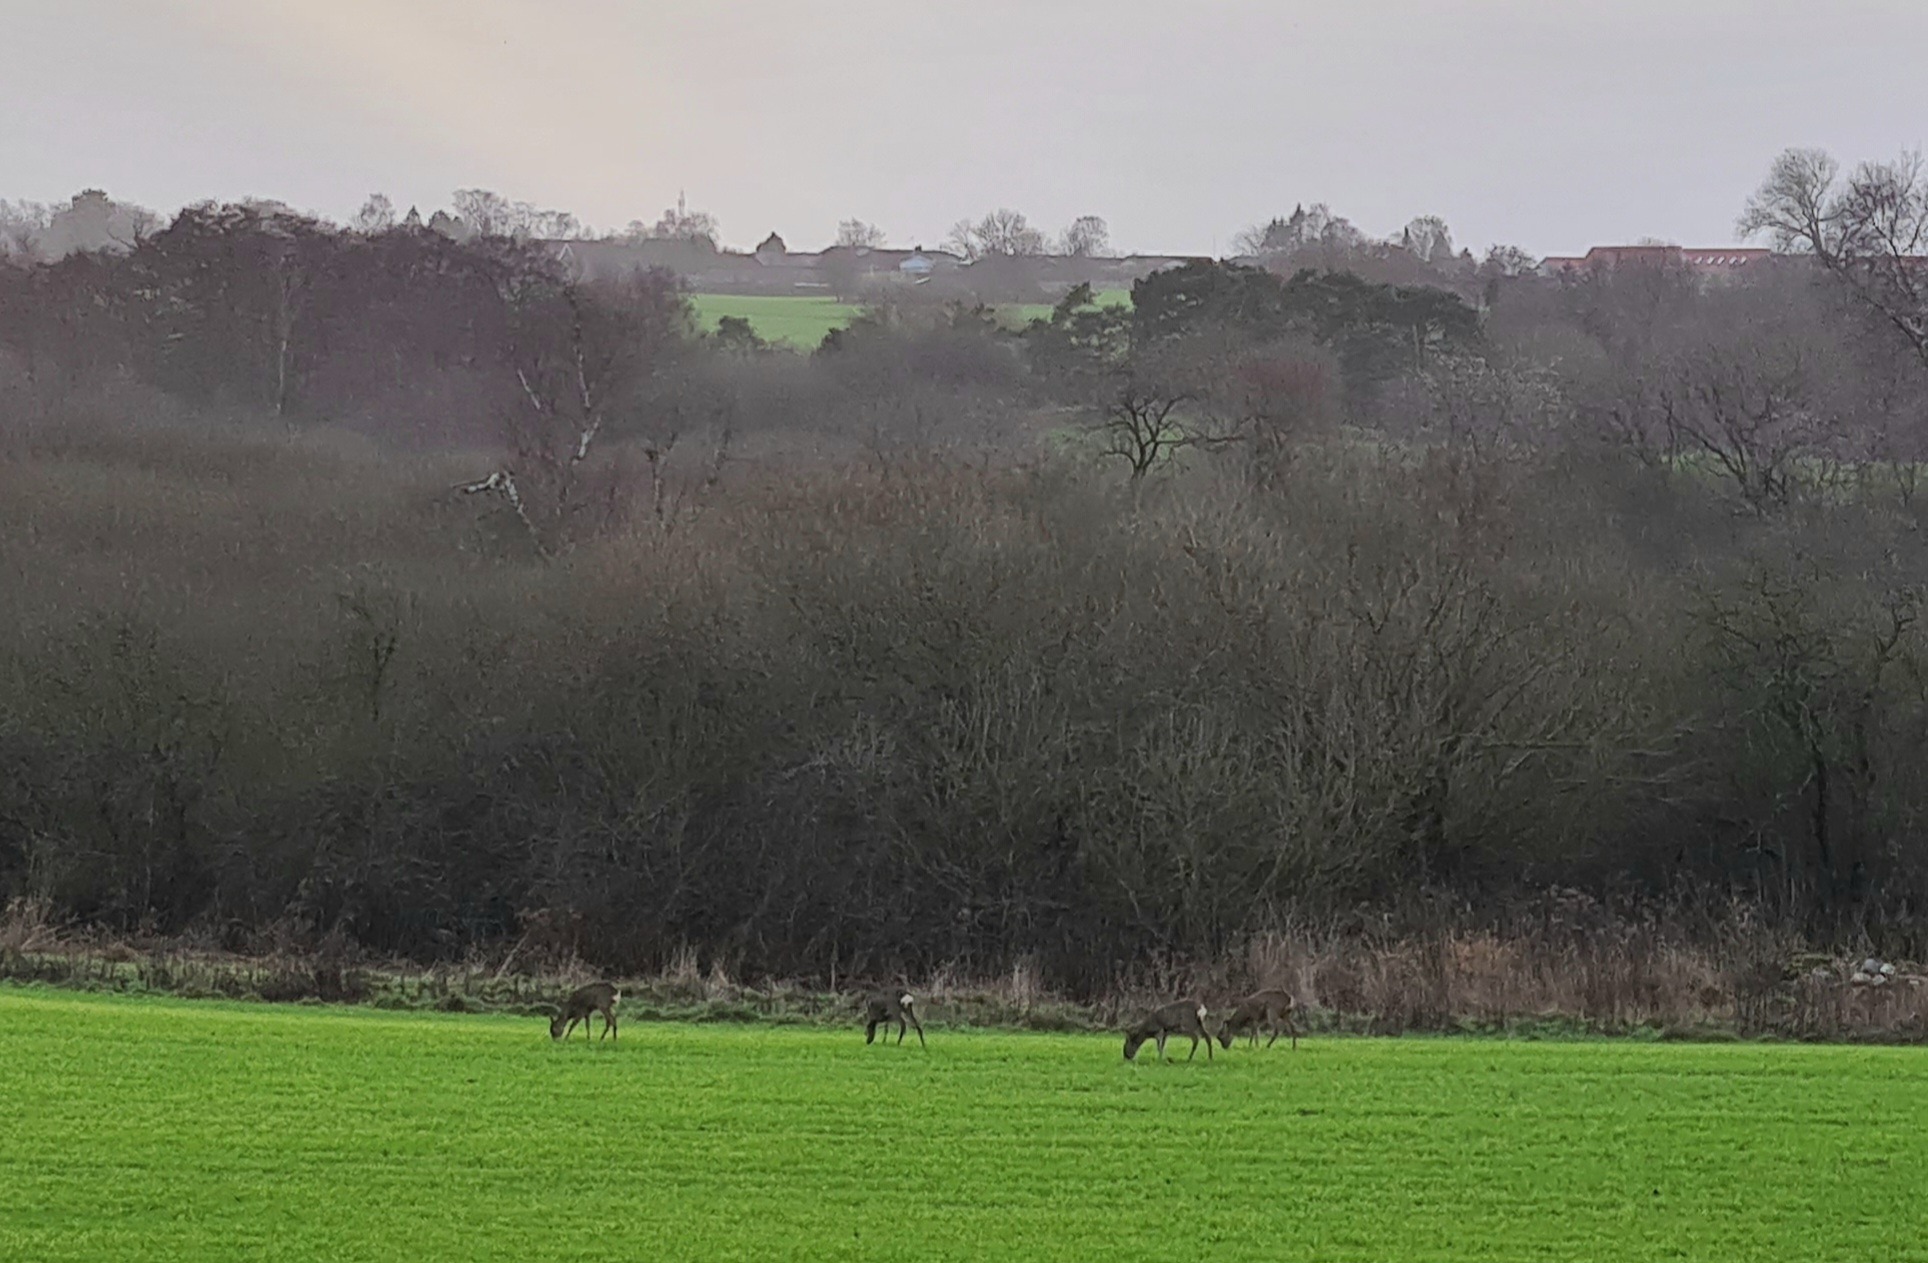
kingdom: Animalia
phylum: Chordata
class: Mammalia
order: Artiodactyla
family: Cervidae
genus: Capreolus
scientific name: Capreolus capreolus
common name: Rådyr
